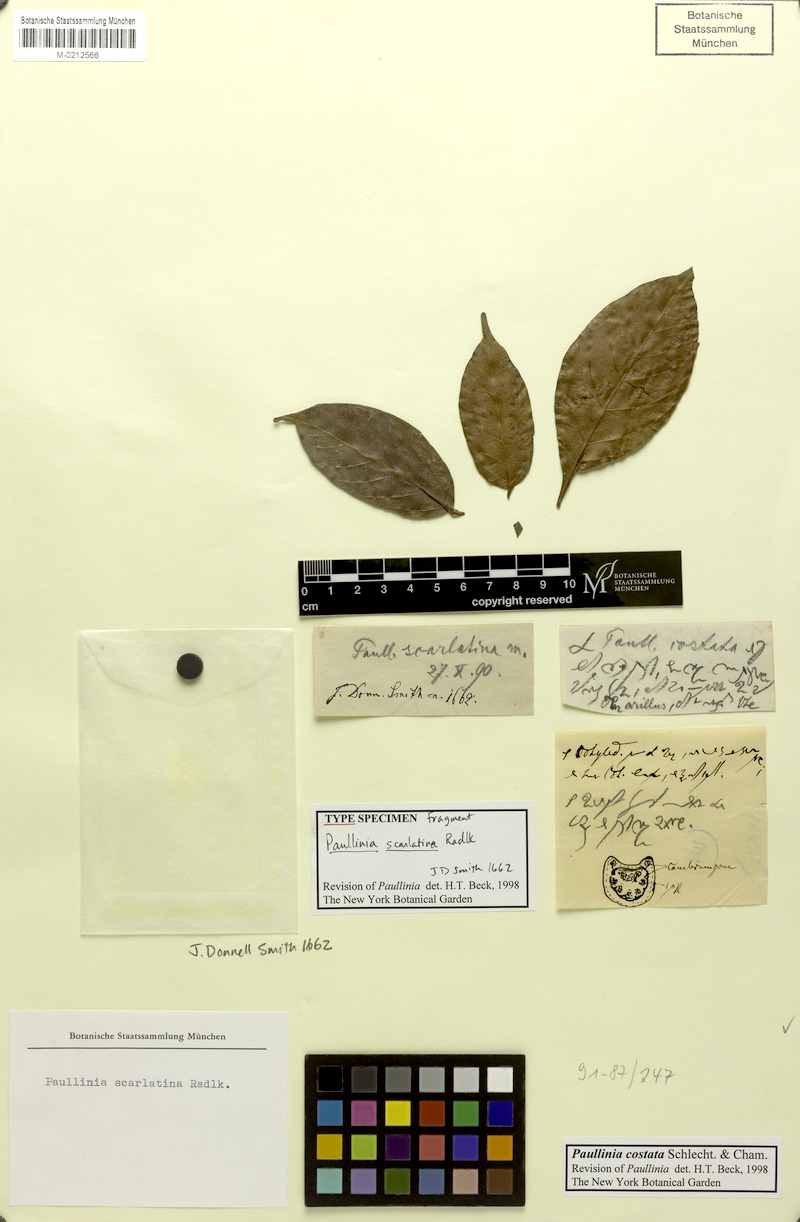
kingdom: Plantae
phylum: Tracheophyta
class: Magnoliopsida
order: Sapindales
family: Sapindaceae
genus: Paullinia
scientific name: Paullinia costata
